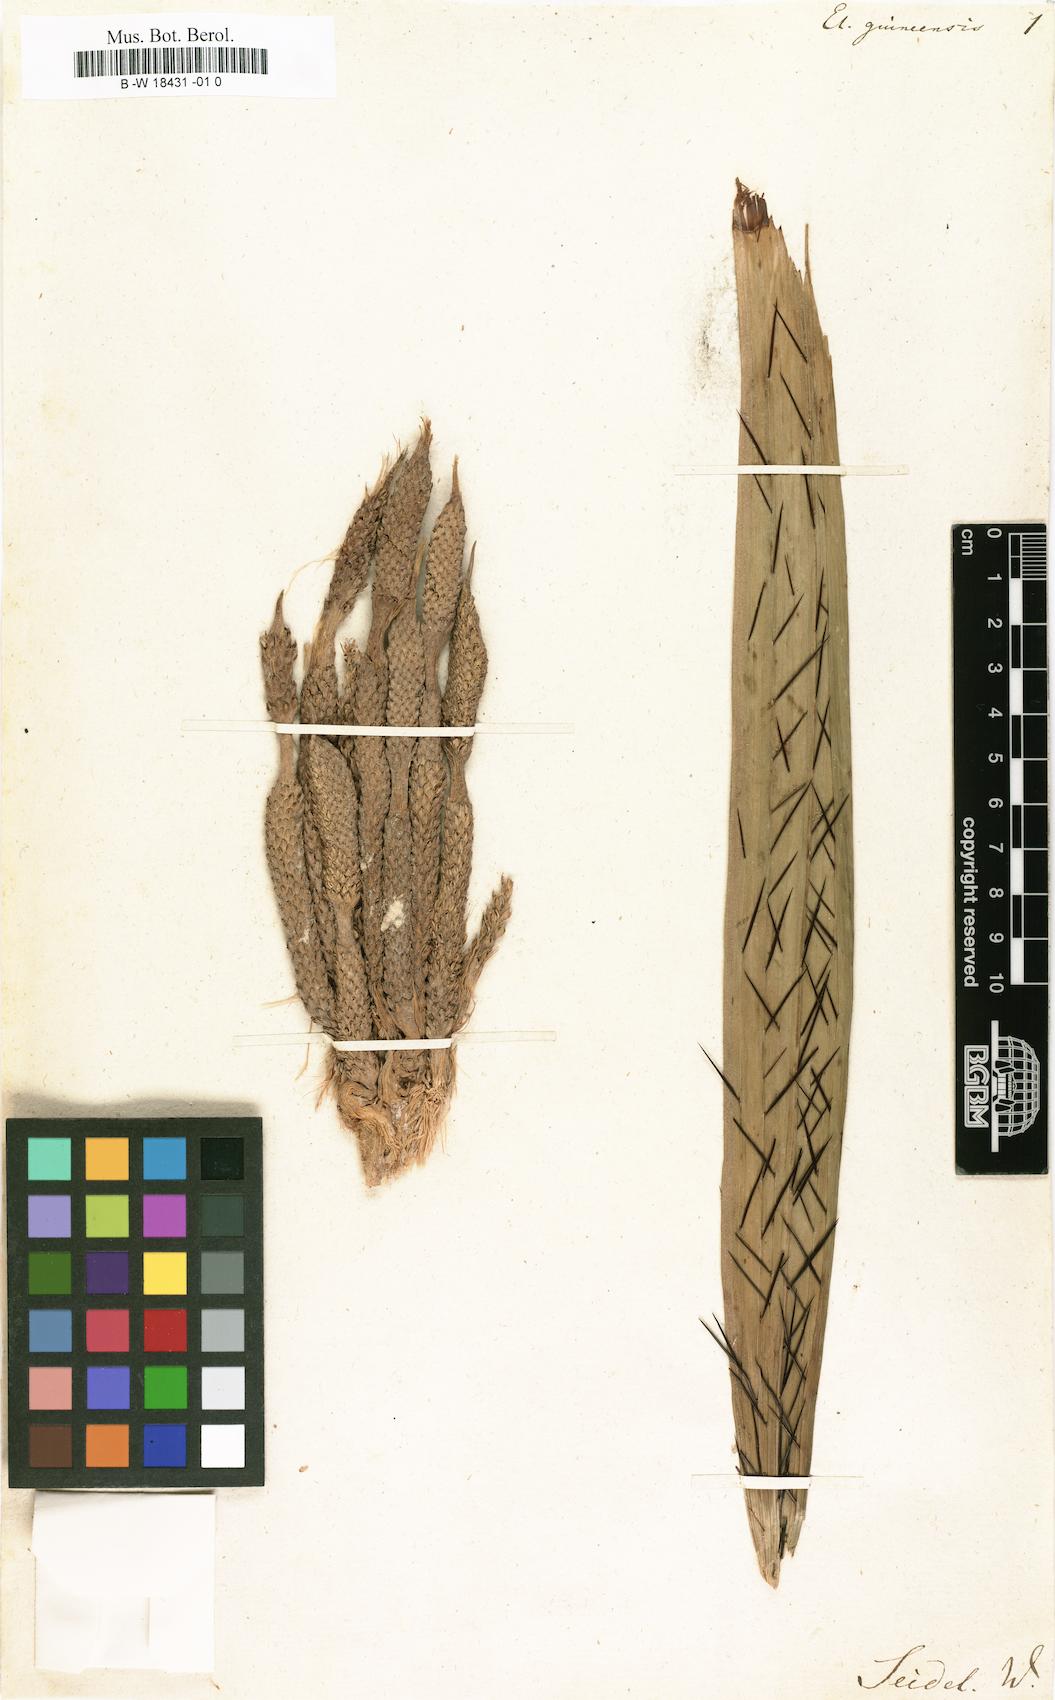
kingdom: Plantae
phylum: Tracheophyta
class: Liliopsida
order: Arecales
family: Arecaceae
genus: Elais
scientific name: Elais
